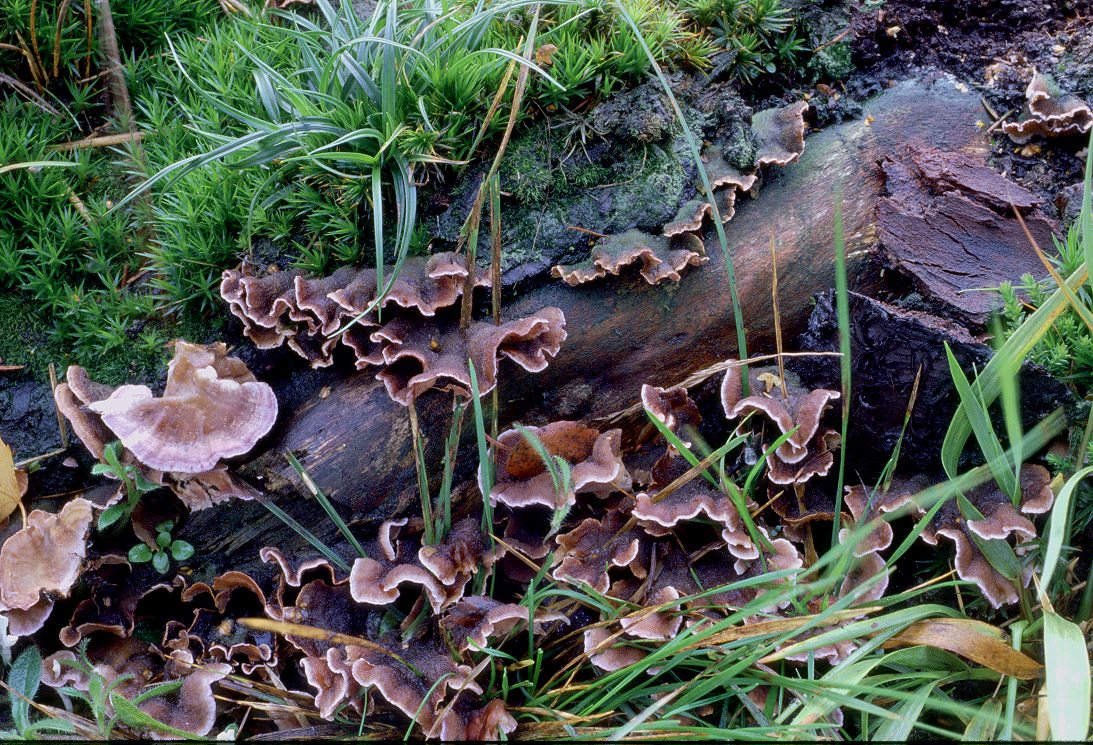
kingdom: Fungi
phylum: Basidiomycota
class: Agaricomycetes
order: Agaricales
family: Cyphellaceae
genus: Chondrostereum
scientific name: Chondrostereum purpureum
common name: purpurlædersvamp
